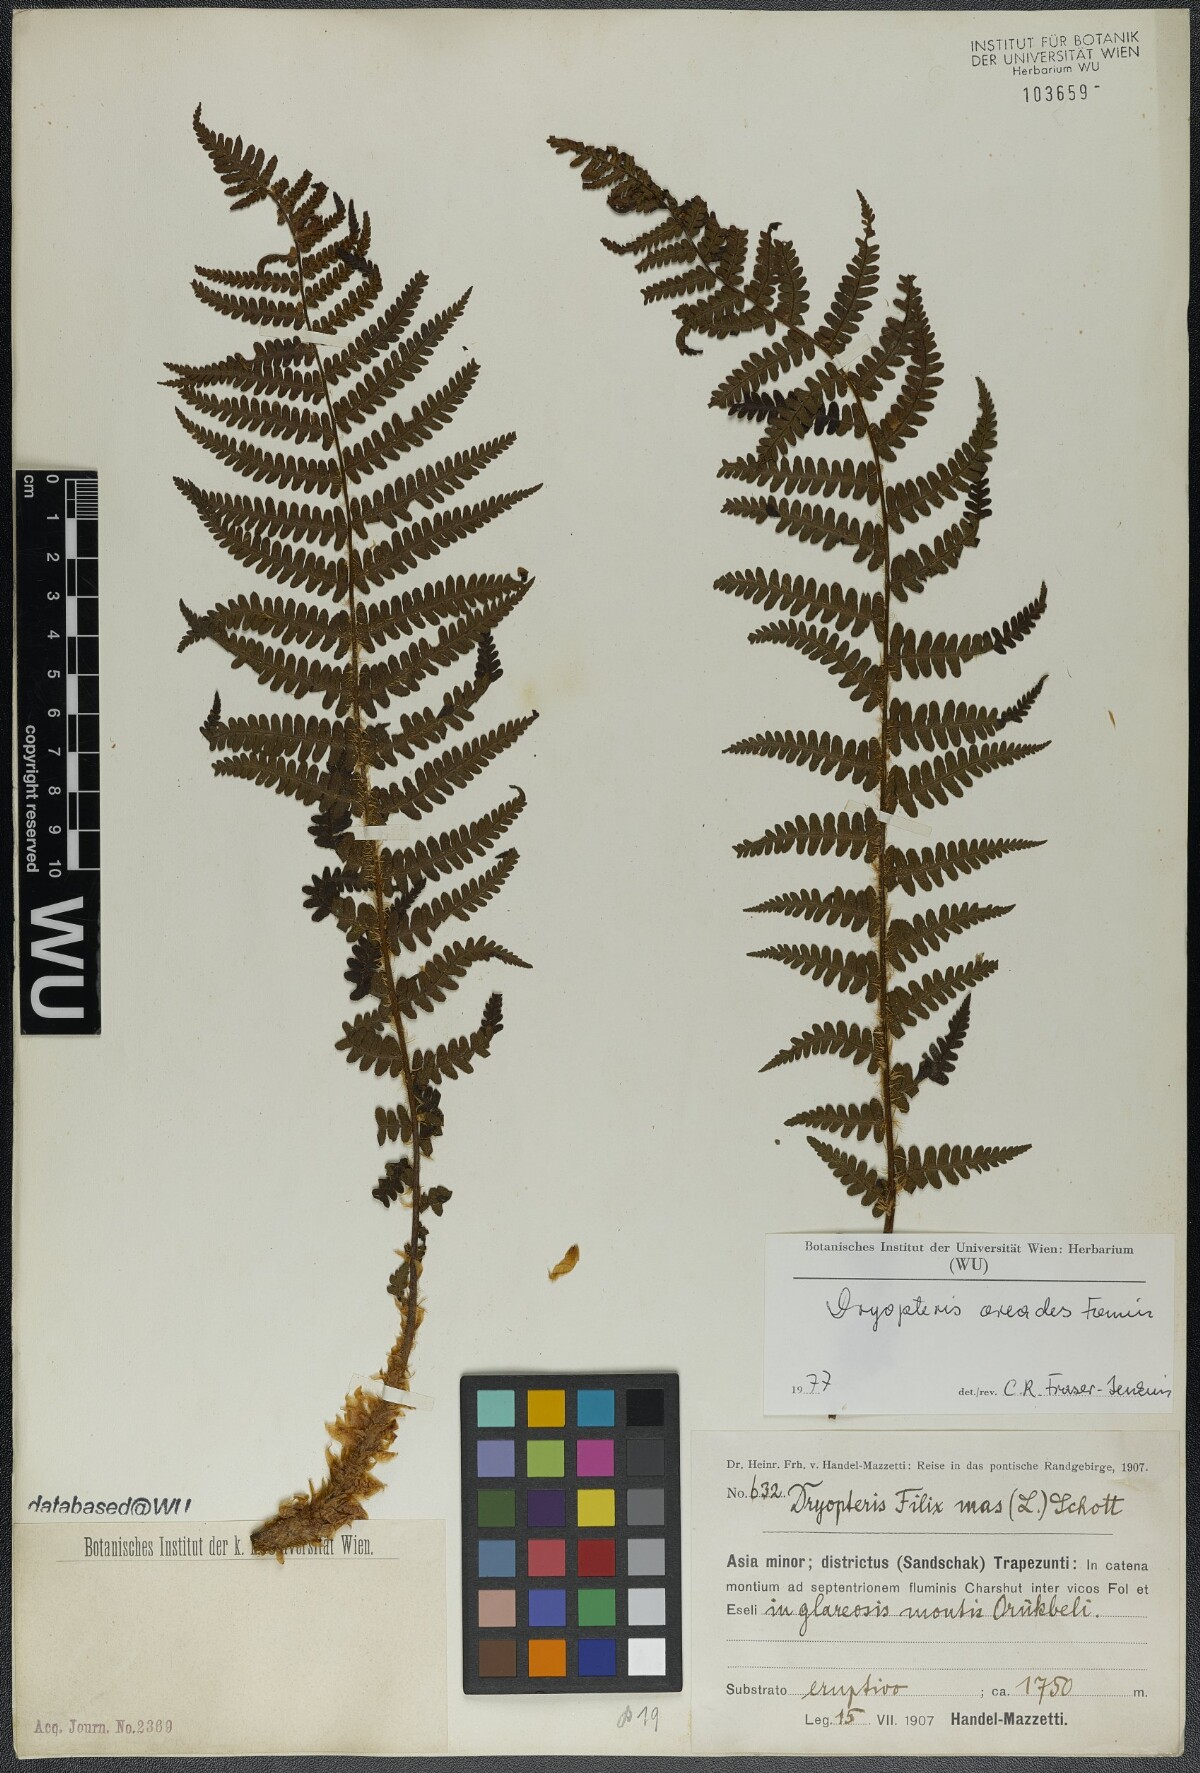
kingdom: Plantae
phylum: Tracheophyta
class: Polypodiopsida
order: Polypodiales
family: Dryopteridaceae
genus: Dryopteris
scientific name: Dryopteris oreades
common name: Mountain male fern
